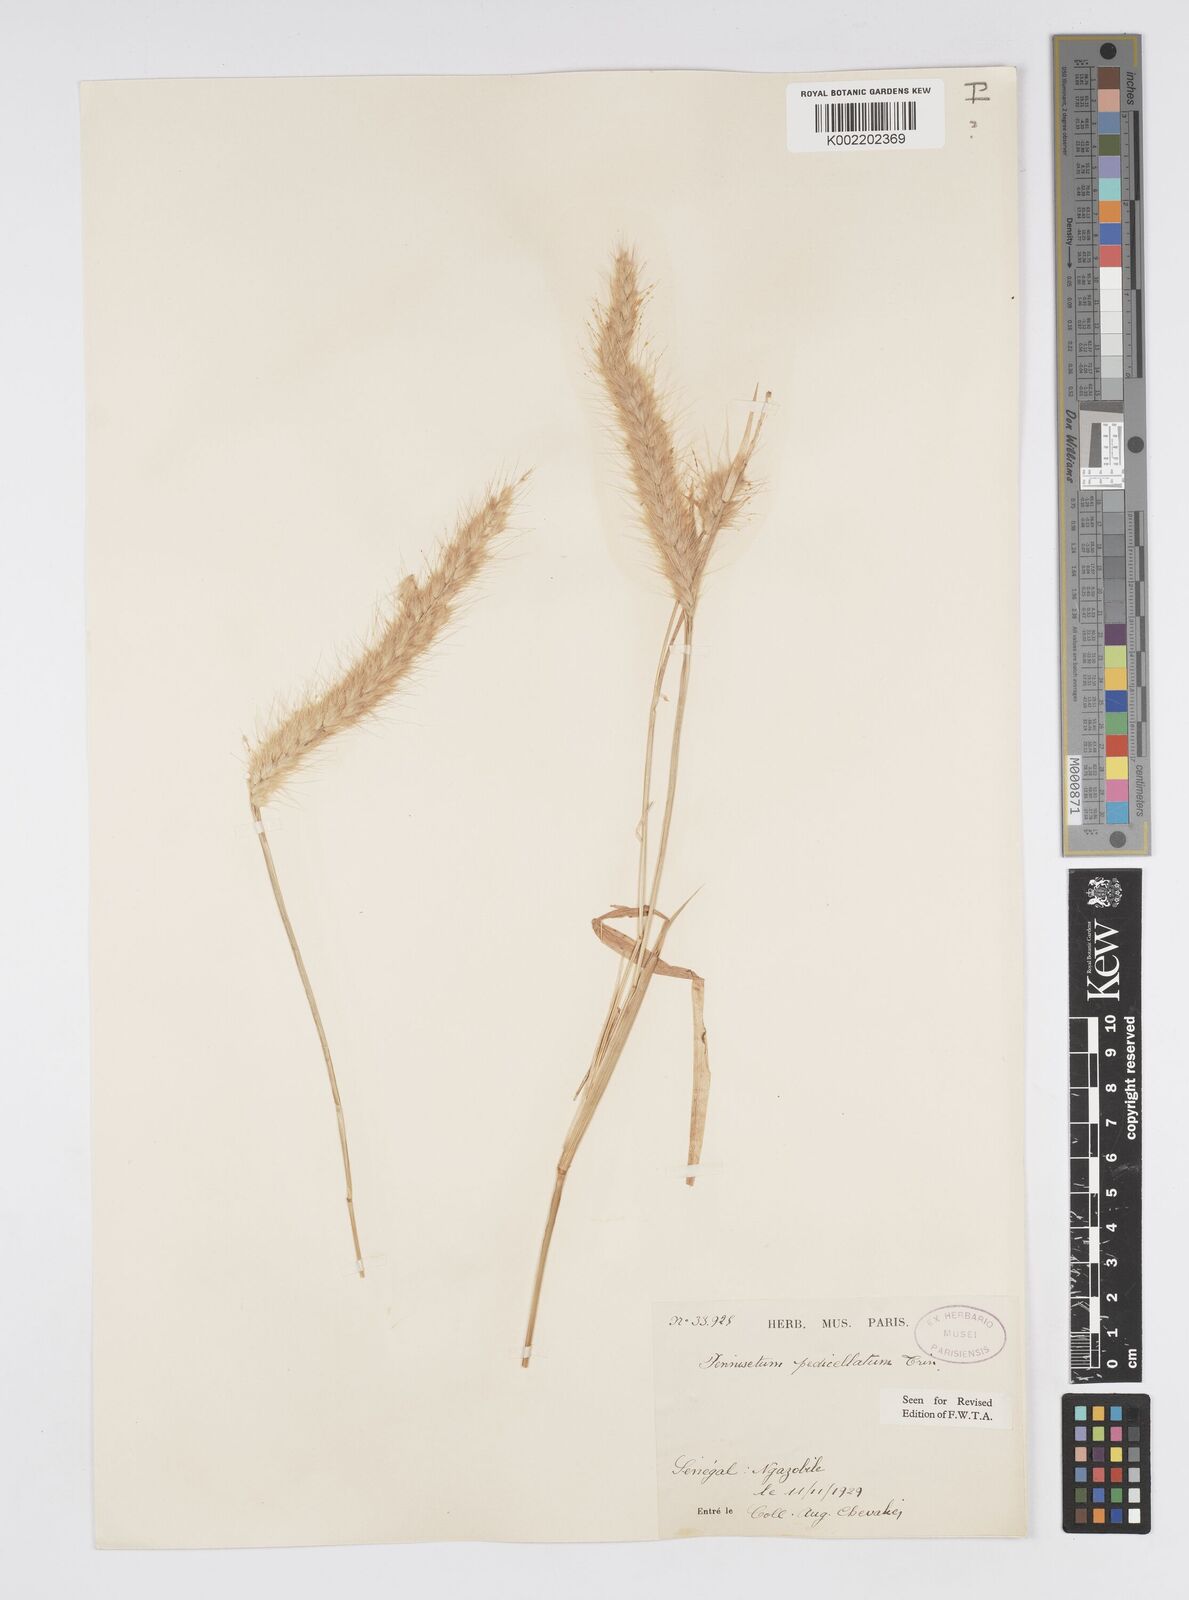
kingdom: Plantae
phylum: Tracheophyta
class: Liliopsida
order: Poales
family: Poaceae
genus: Cenchrus
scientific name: Cenchrus pedicellatus
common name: Hairy fountain grass
